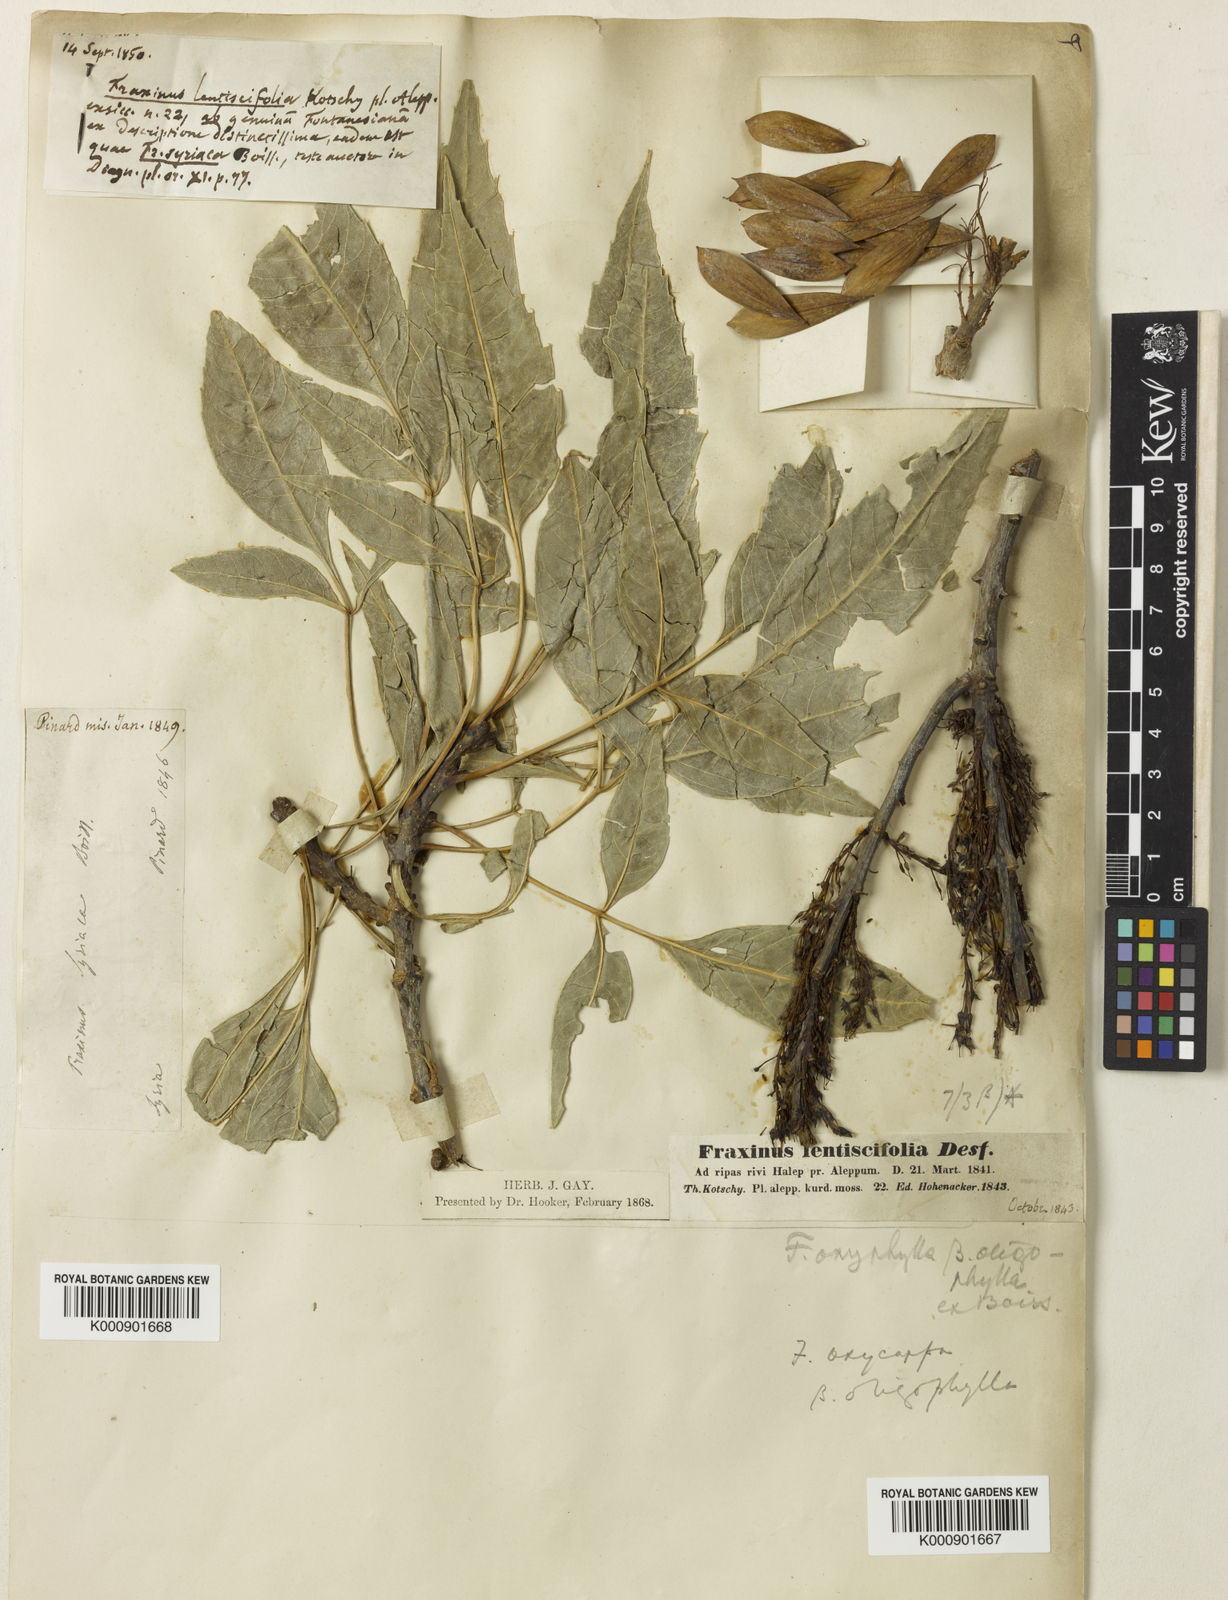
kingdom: Plantae
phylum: Tracheophyta
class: Magnoliopsida
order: Lamiales
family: Oleaceae
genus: Fraxinus
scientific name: Fraxinus
